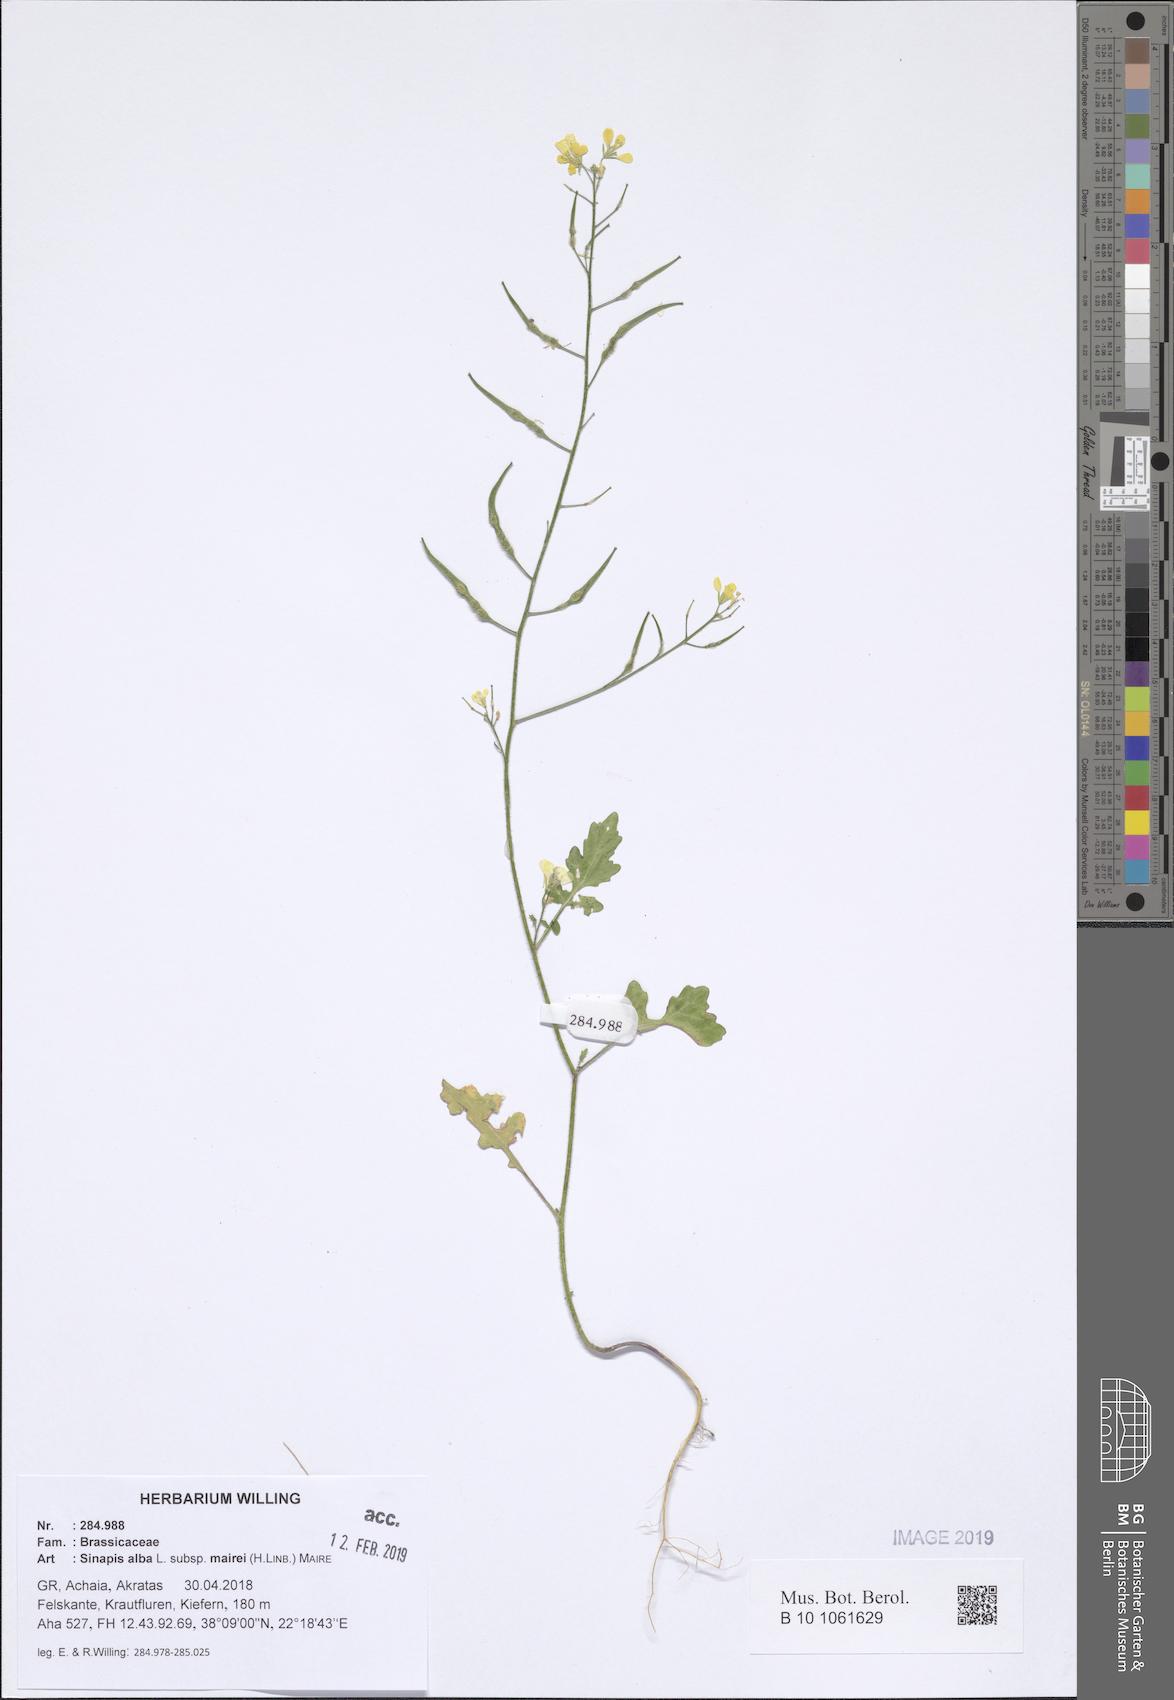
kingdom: Plantae
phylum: Tracheophyta
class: Magnoliopsida
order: Brassicales
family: Brassicaceae
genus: Sinapis
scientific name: Sinapis alba
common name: White mustard
